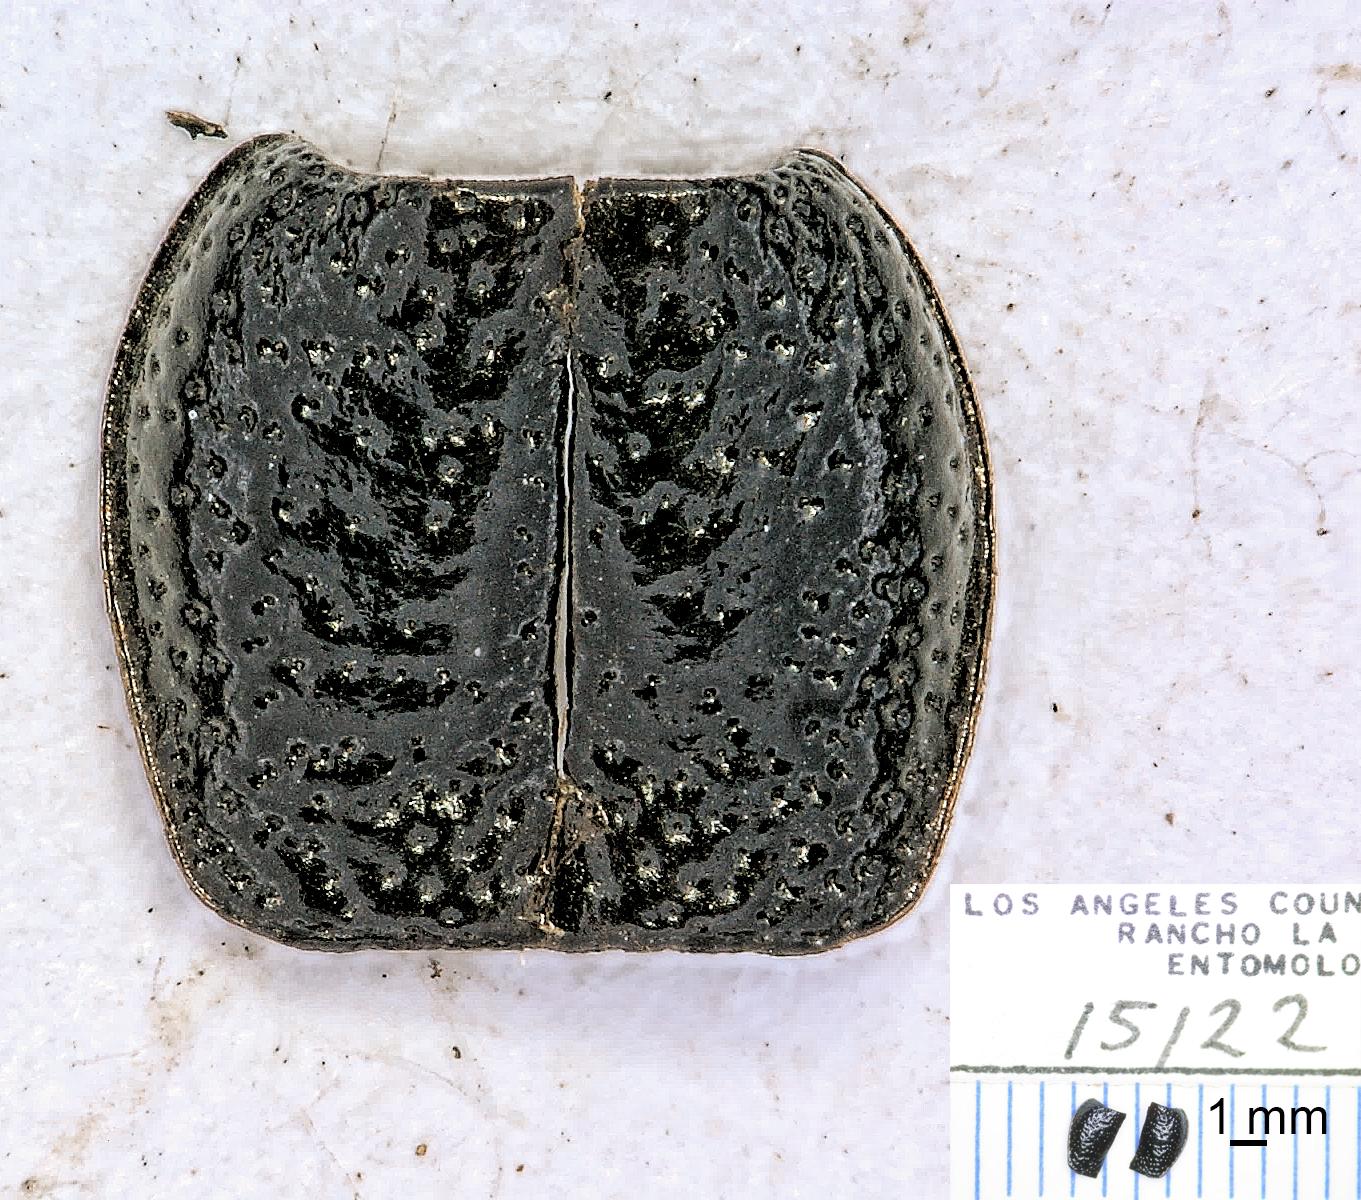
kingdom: Animalia
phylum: Arthropoda
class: Insecta
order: Coleoptera
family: Carabidae
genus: Dicheirus
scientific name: Dicheirus
